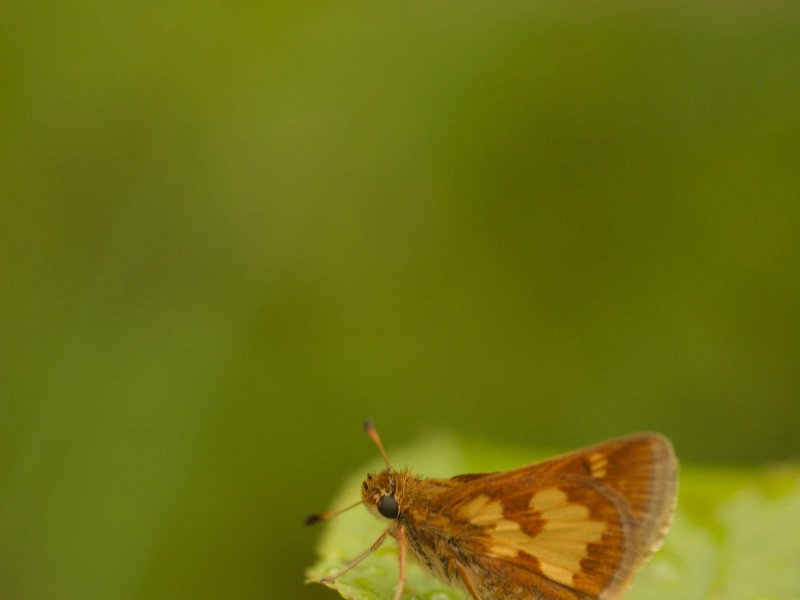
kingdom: Animalia
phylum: Arthropoda
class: Insecta
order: Lepidoptera
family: Hesperiidae
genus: Polites
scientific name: Polites coras
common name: Peck's Skipper
